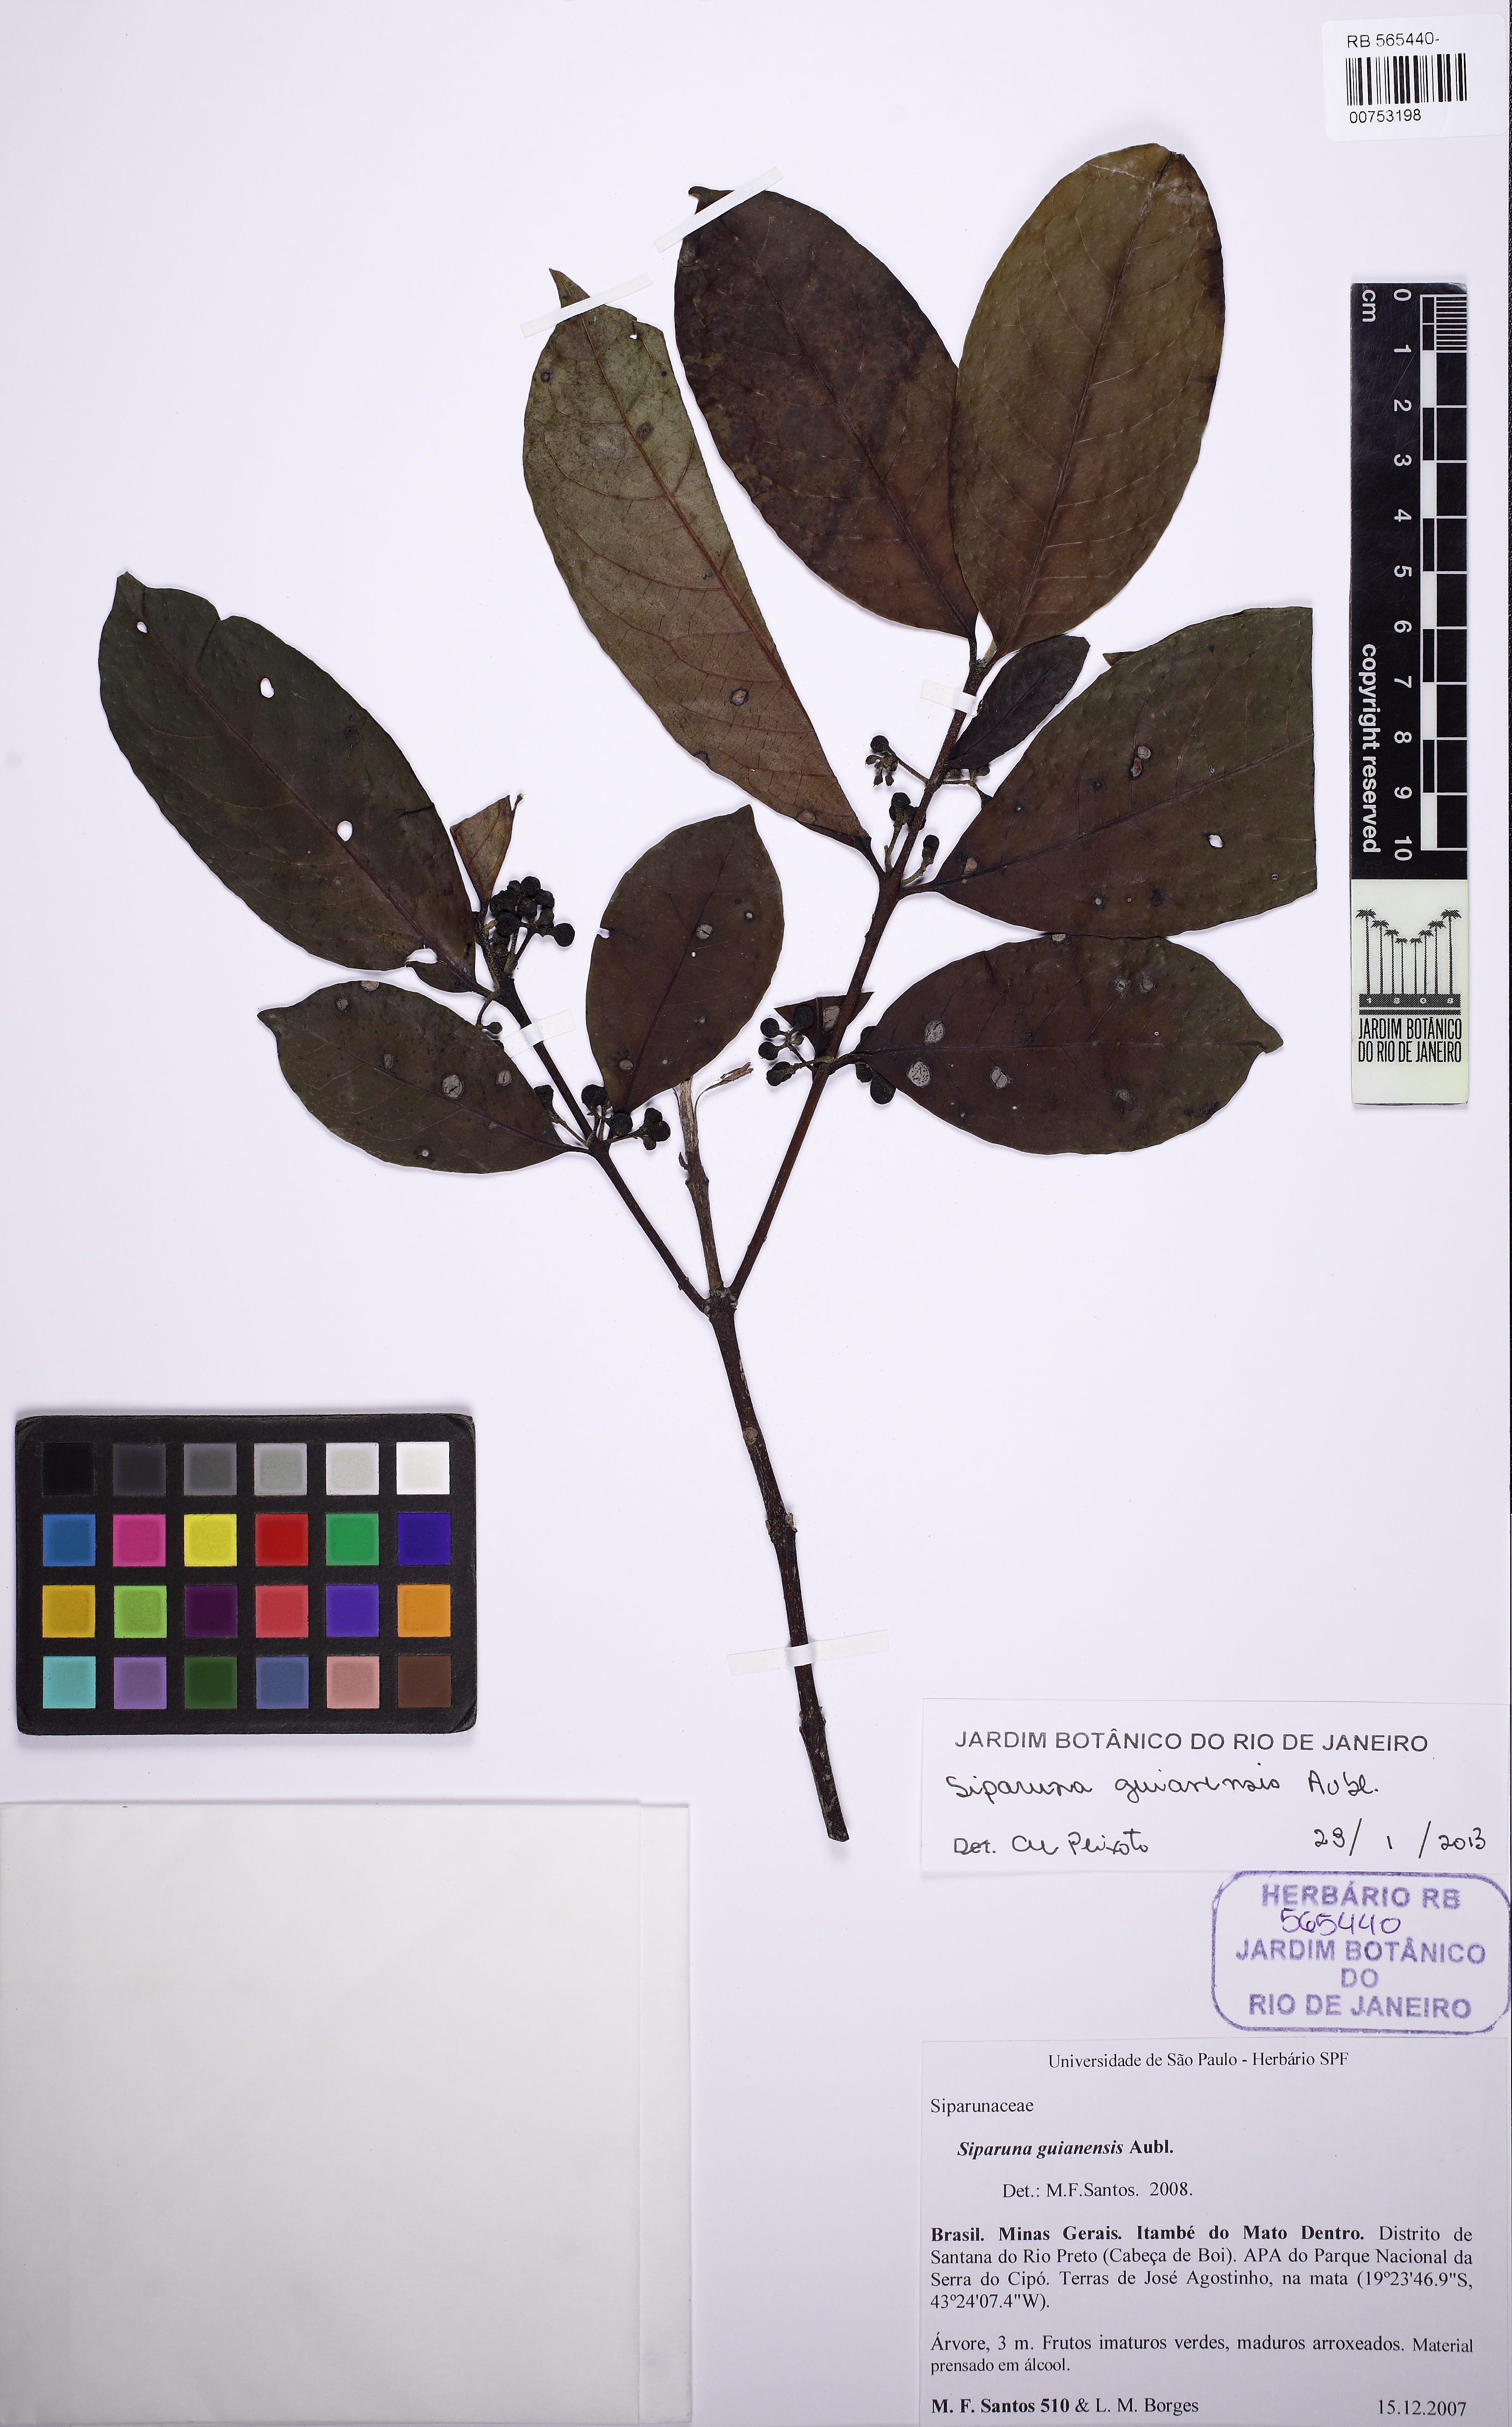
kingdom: Plantae
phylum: Tracheophyta
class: Magnoliopsida
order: Laurales
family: Siparunaceae
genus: Siparuna
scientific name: Siparuna guianensis
